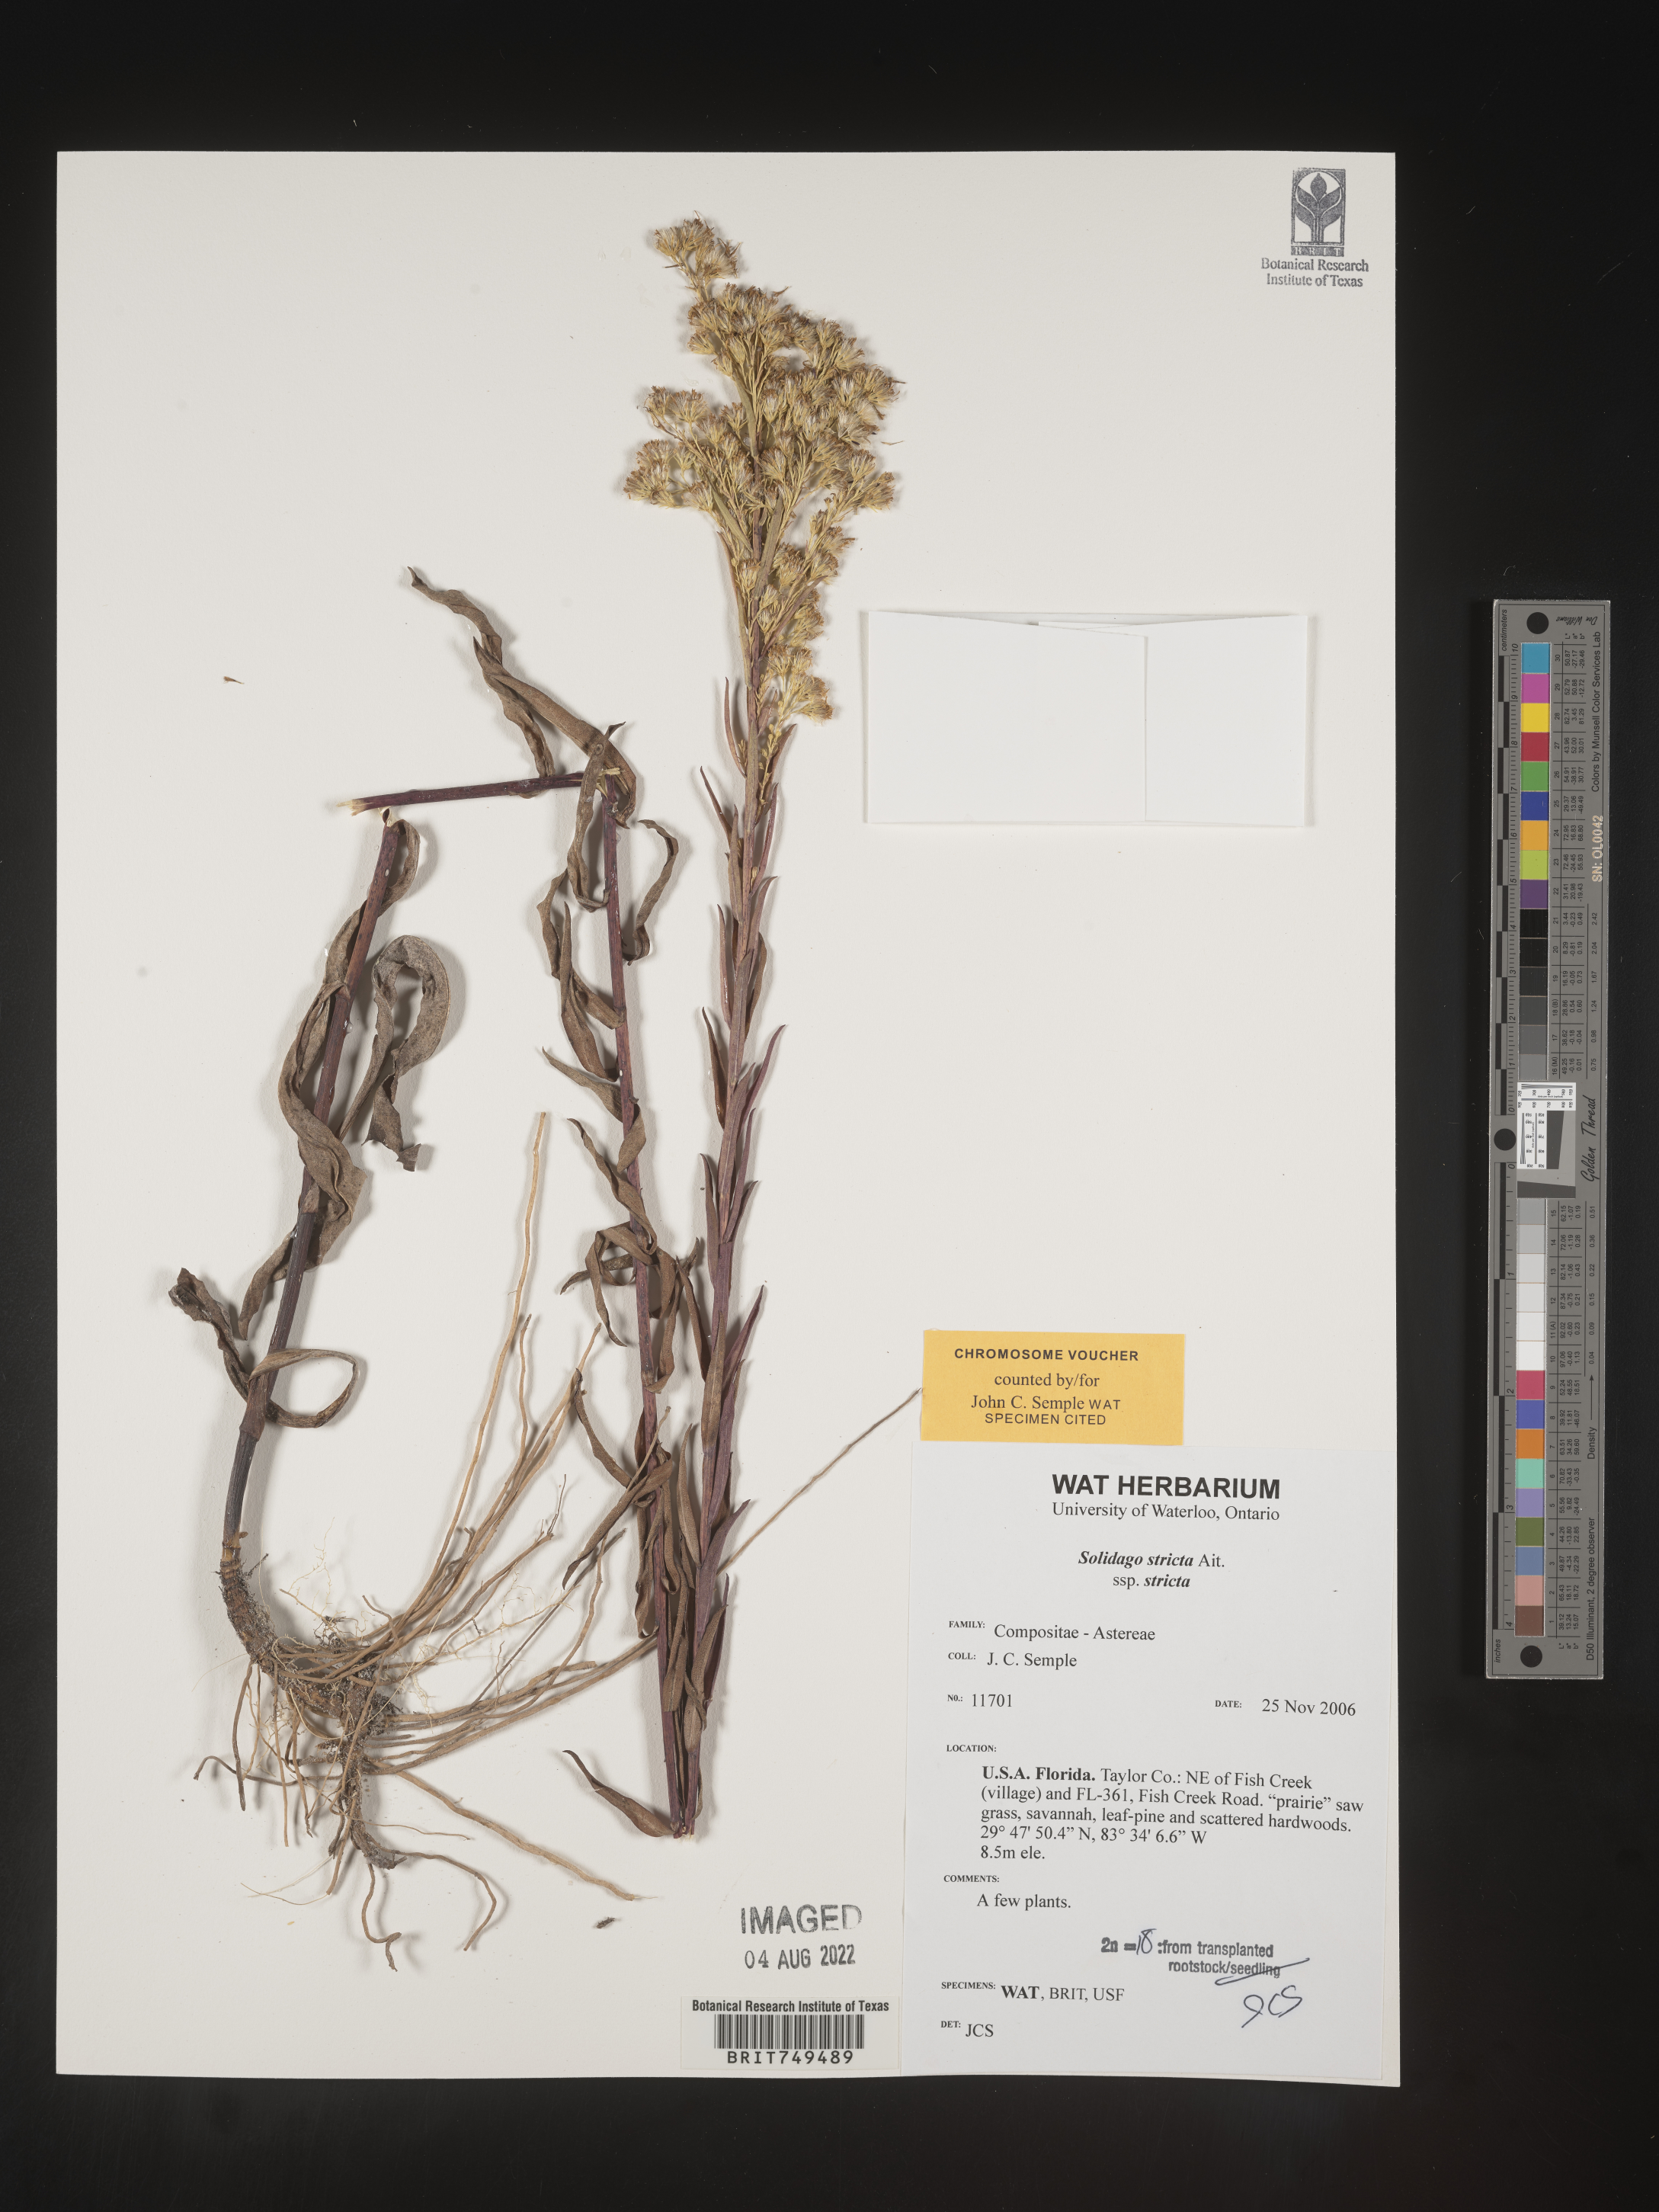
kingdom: Plantae
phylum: Tracheophyta
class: Magnoliopsida
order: Asterales
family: Asteraceae
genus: Solidago
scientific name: Solidago stricta
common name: Pine barren bog goldenrod
